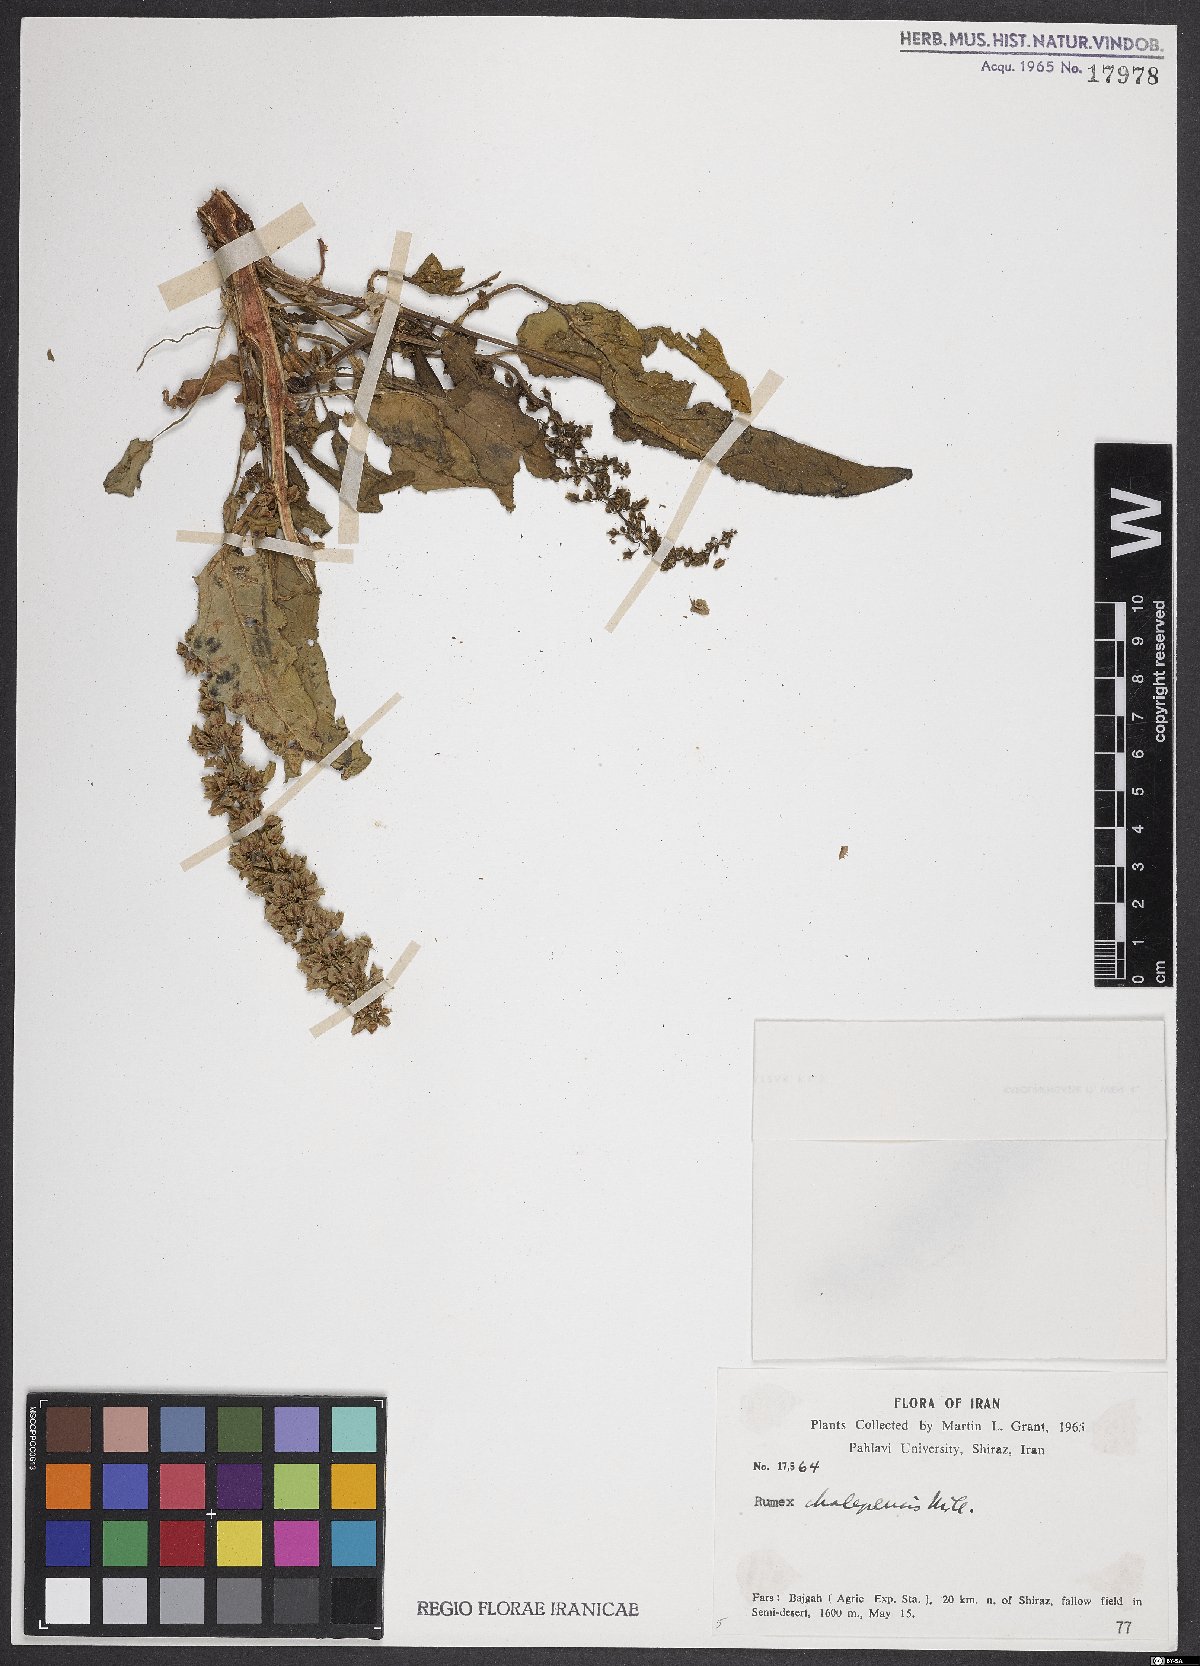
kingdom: Plantae
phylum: Tracheophyta
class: Magnoliopsida
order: Caryophyllales
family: Polygonaceae
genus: Rumex
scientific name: Rumex chalepensis
